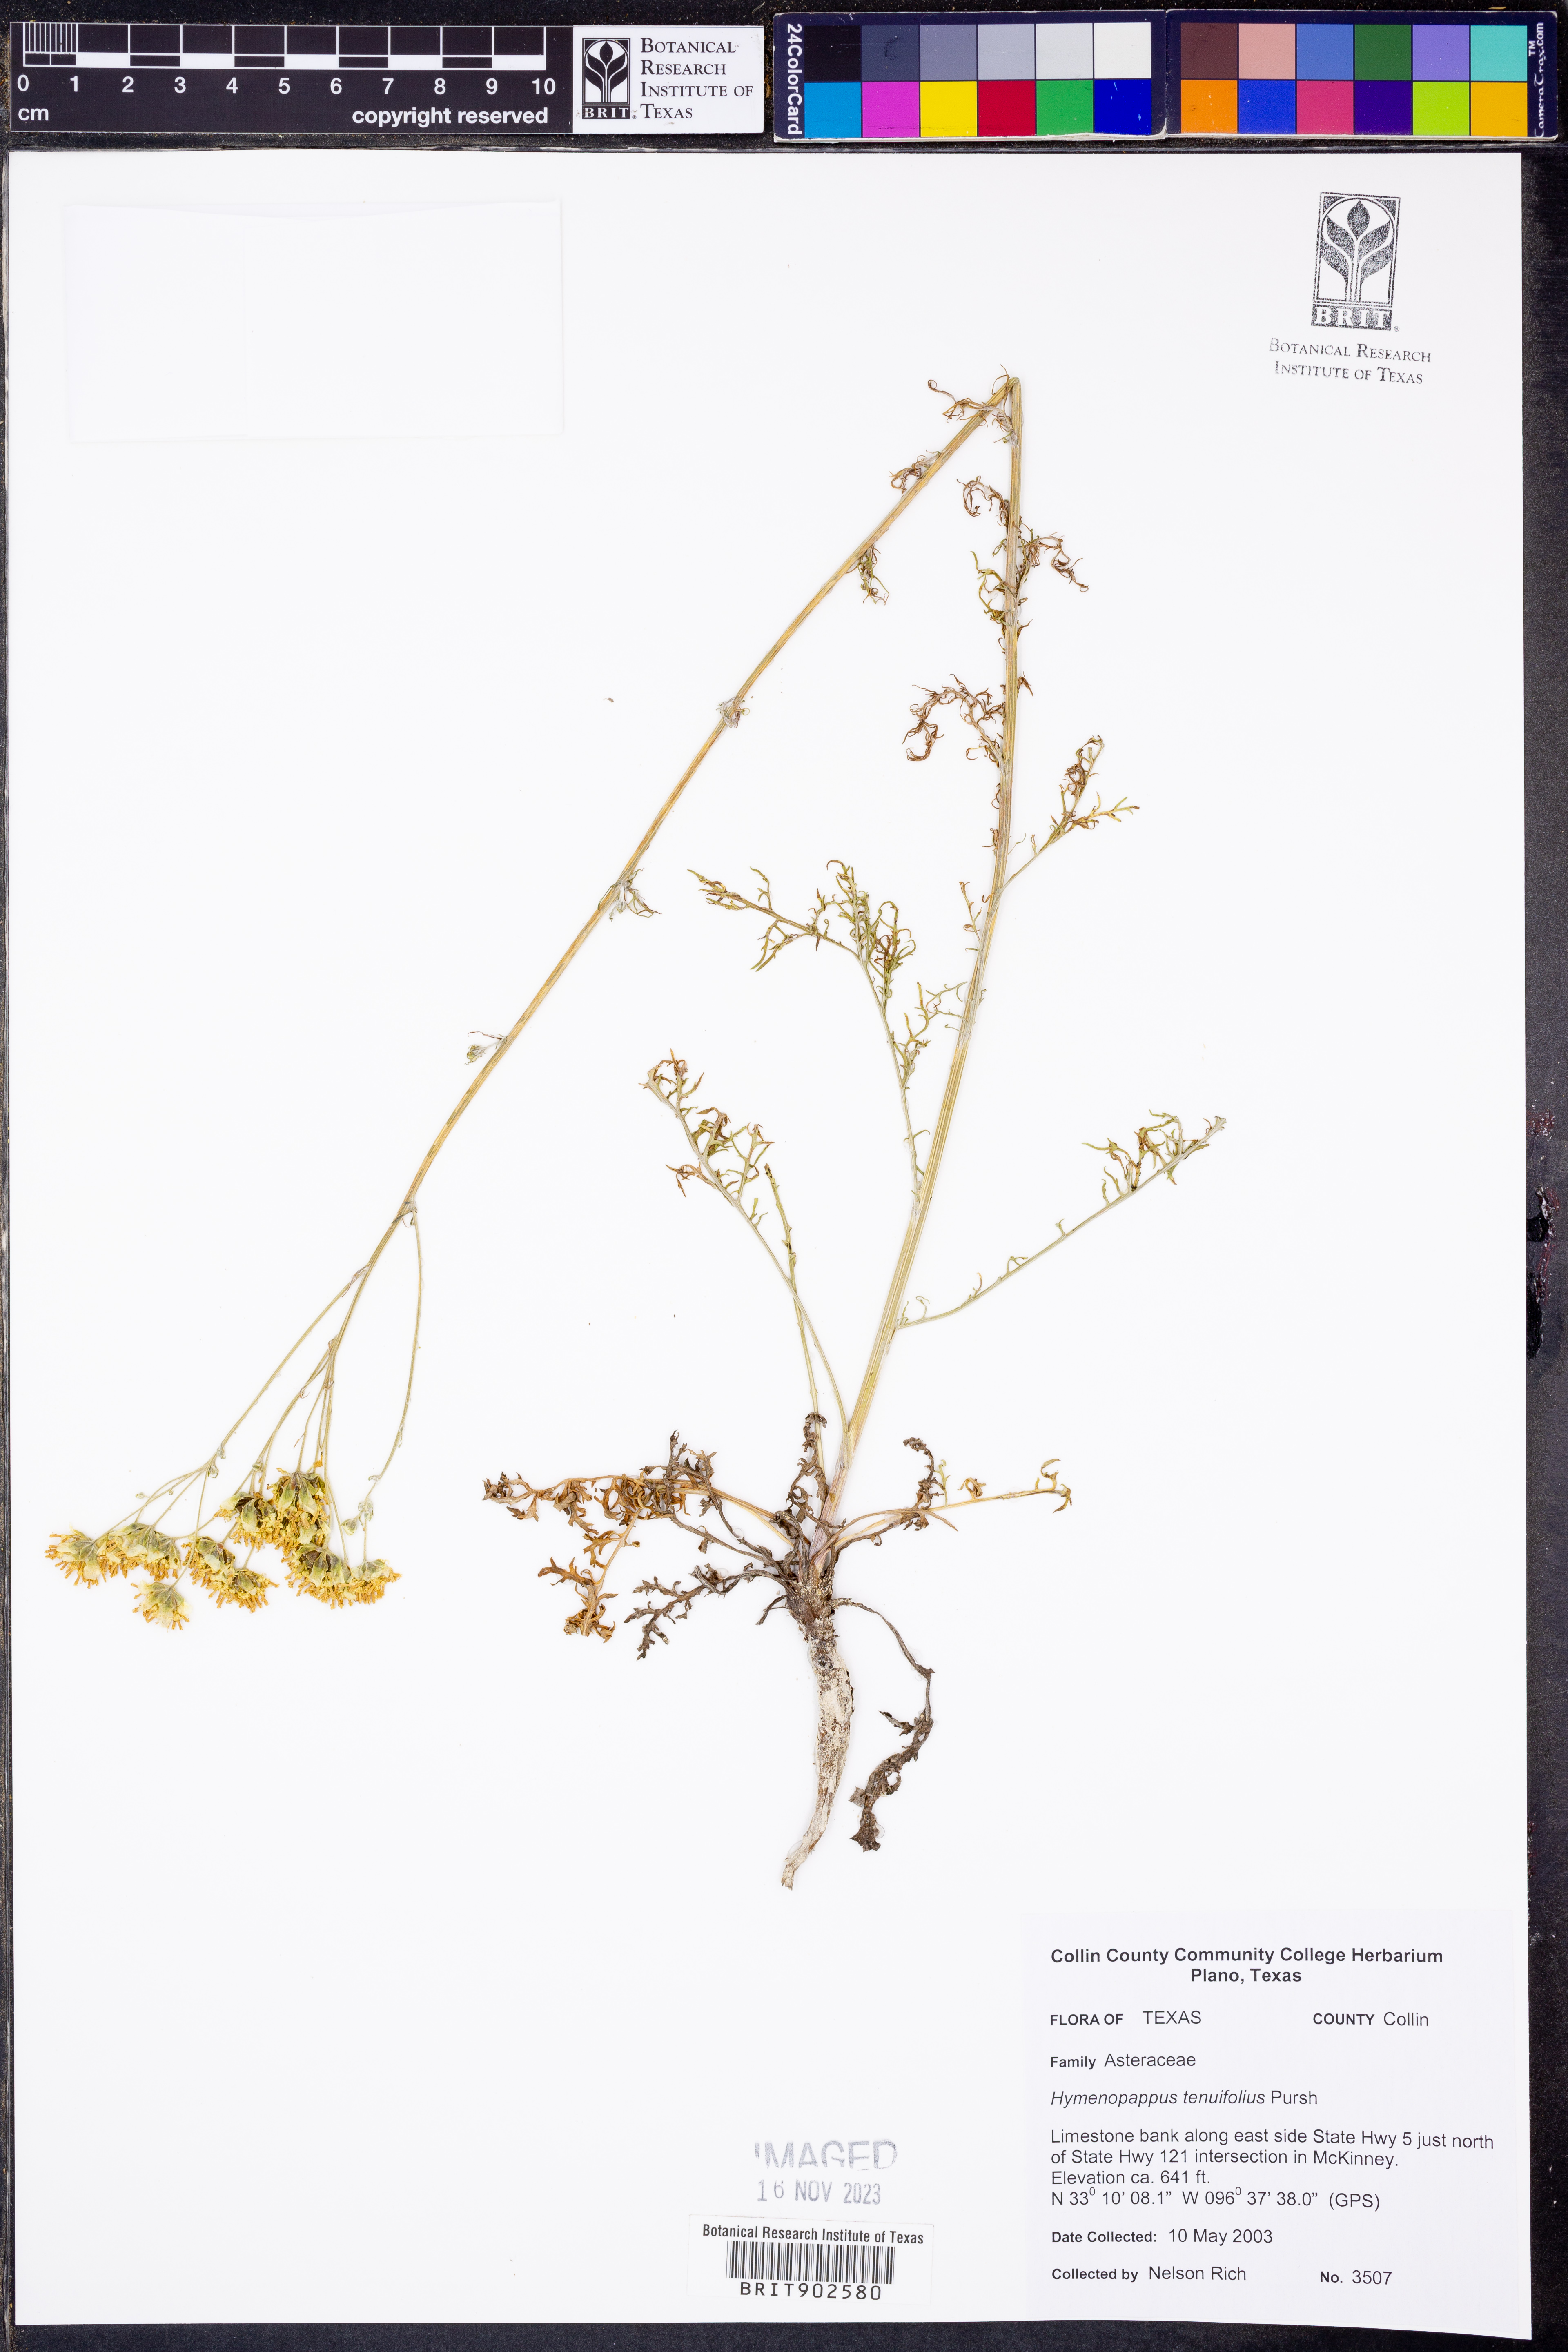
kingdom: Plantae
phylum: Tracheophyta
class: Magnoliopsida
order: Asterales
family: Asteraceae
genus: Hymenopappus
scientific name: Hymenopappus tenuifolius
